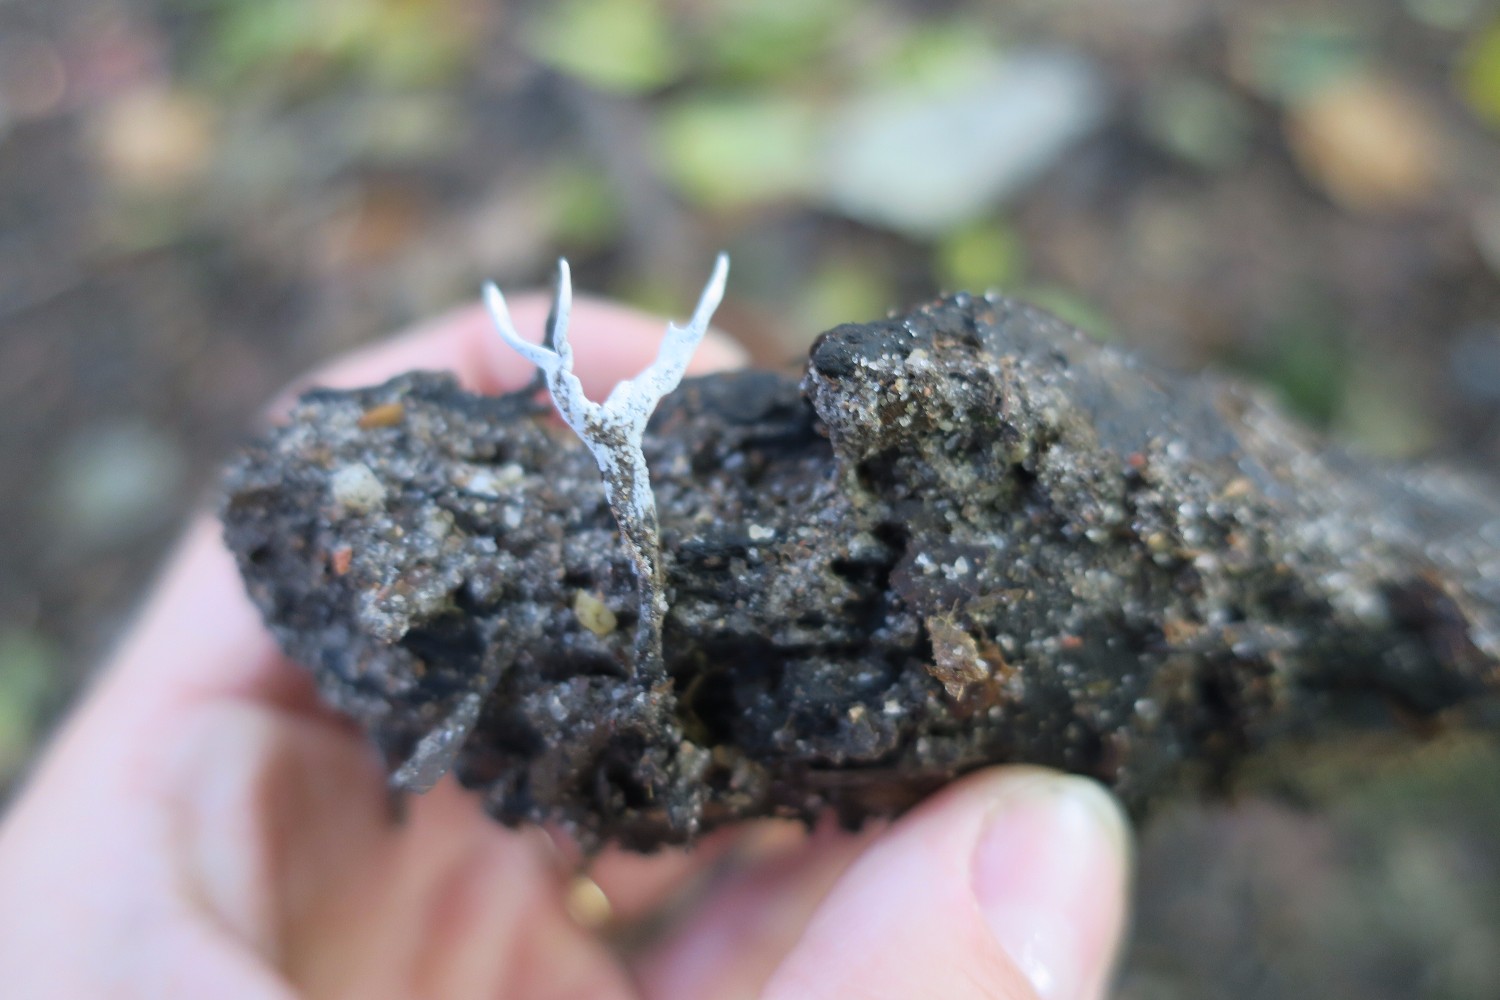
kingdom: Fungi
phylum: Ascomycota
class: Sordariomycetes
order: Xylariales
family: Xylariaceae
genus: Xylaria
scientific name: Xylaria hypoxylon
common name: grenet stødsvamp
